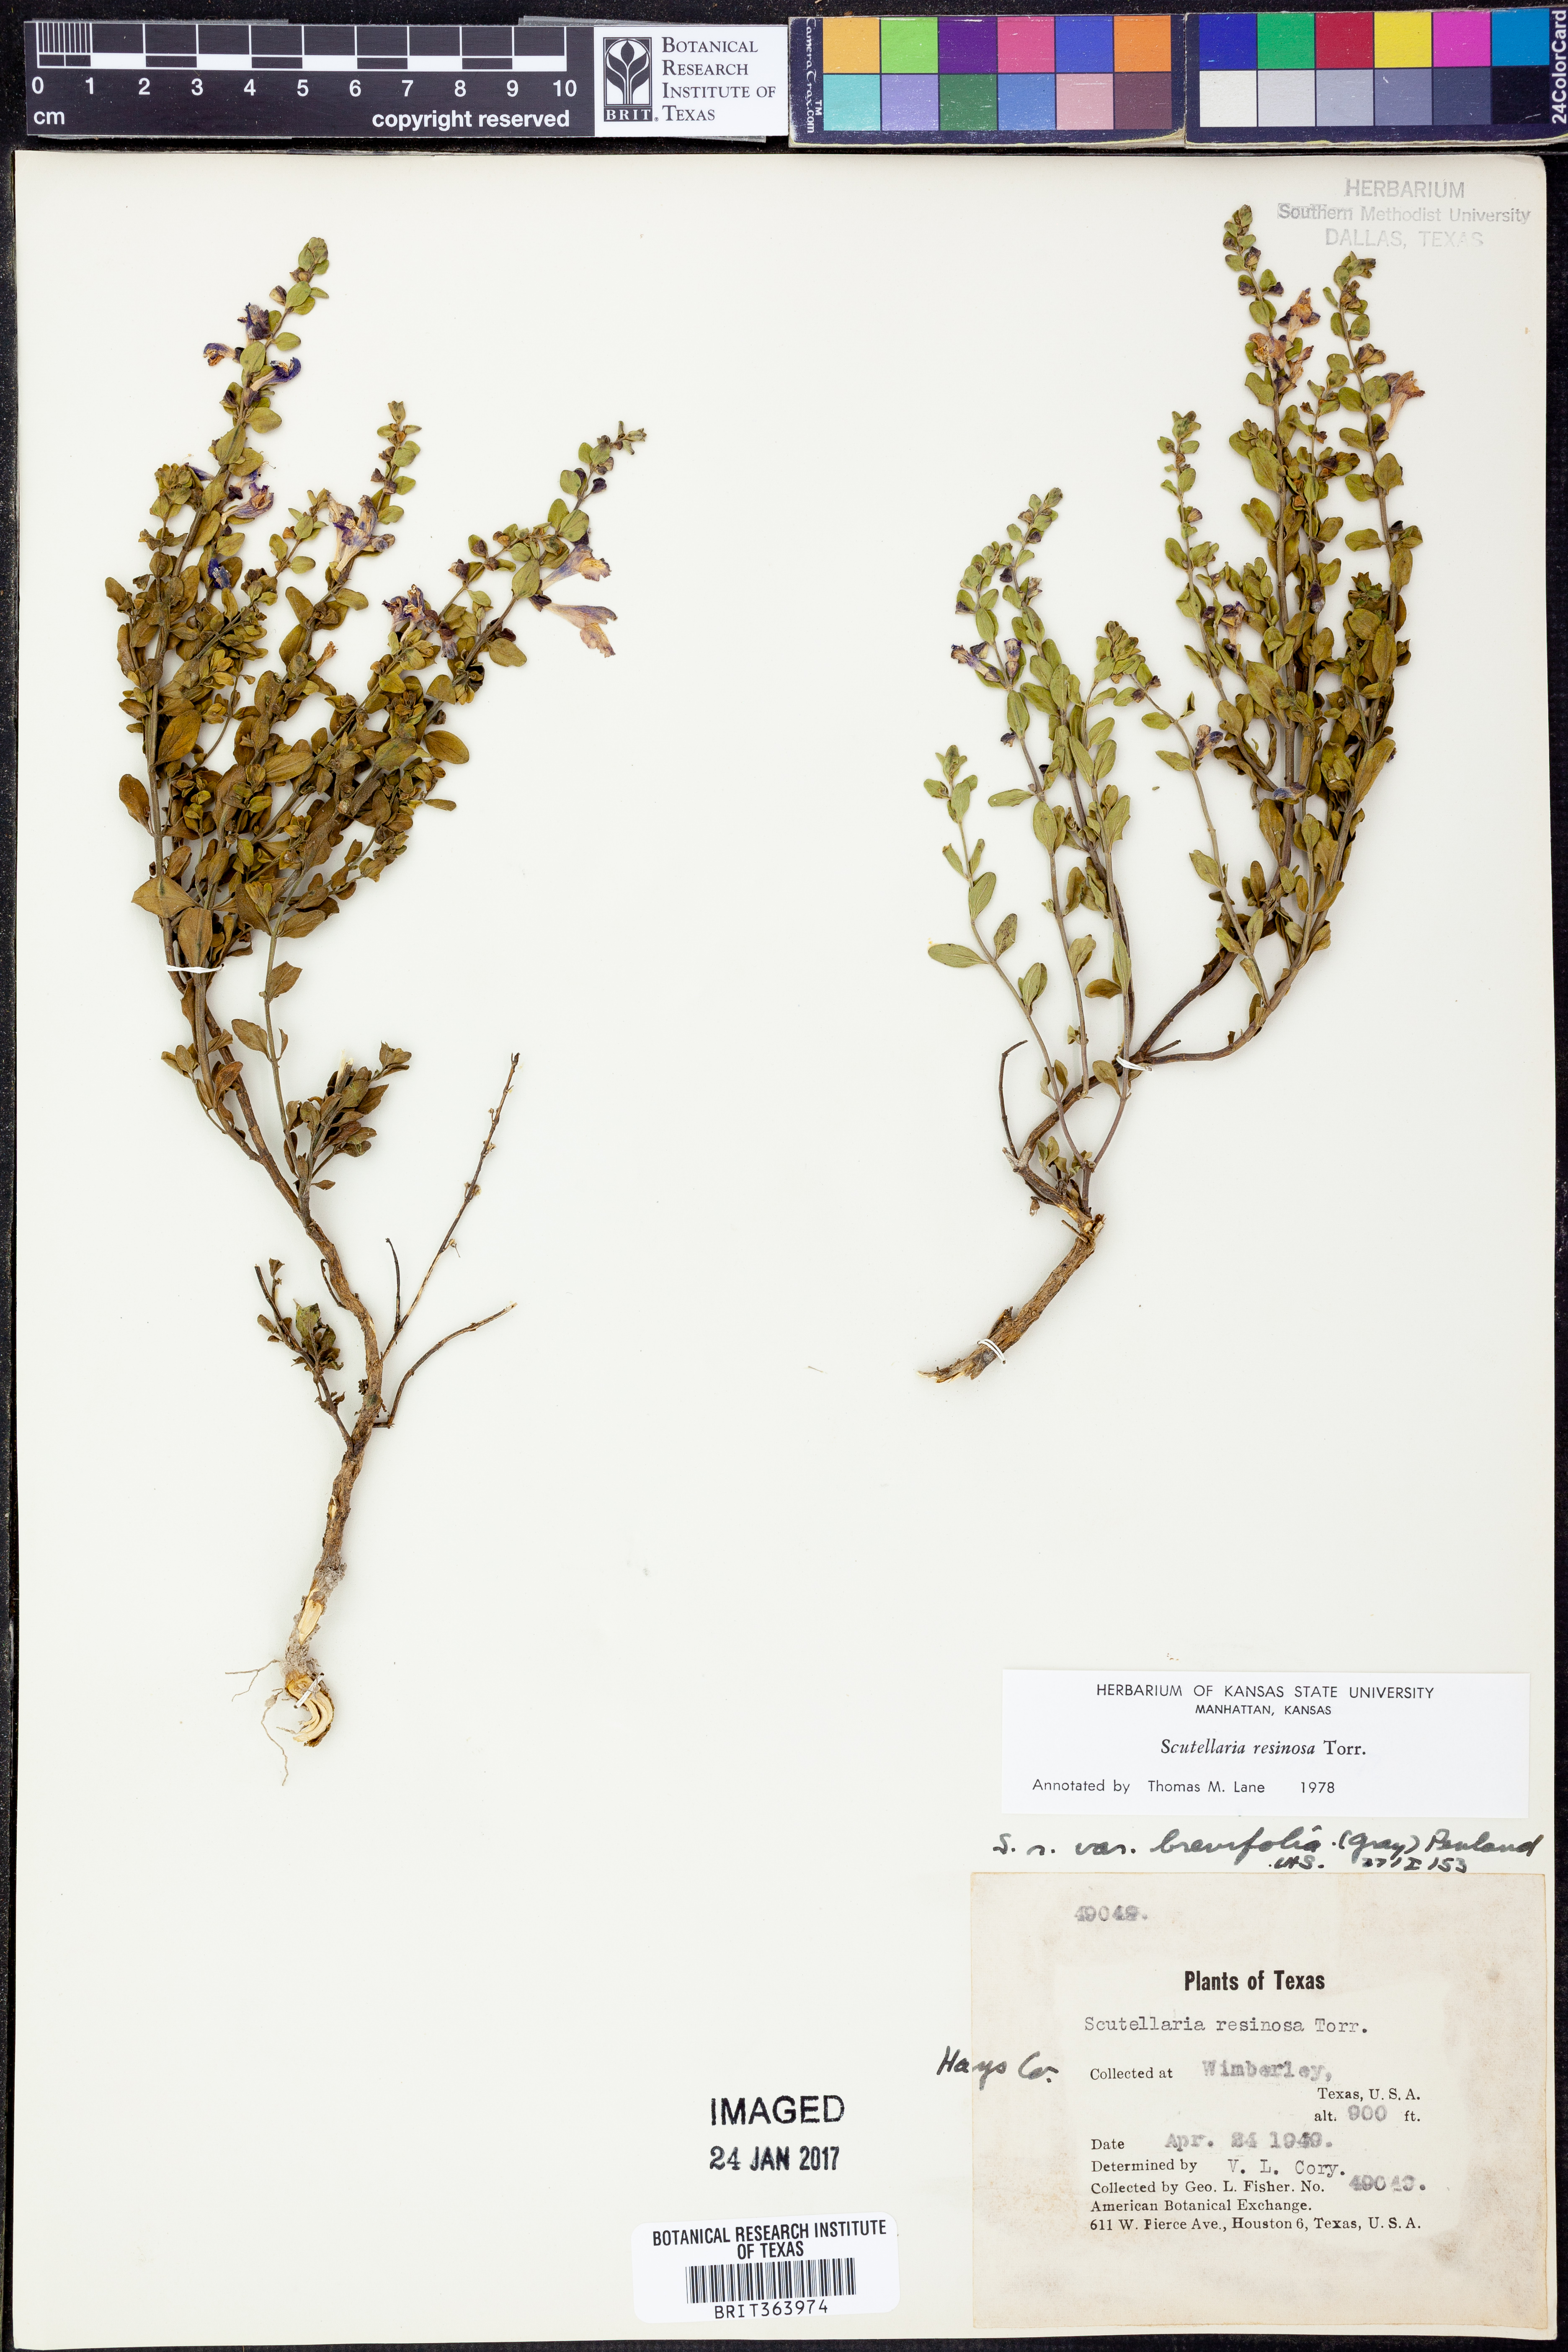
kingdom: Plantae
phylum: Tracheophyta
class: Magnoliopsida
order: Lamiales
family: Lamiaceae
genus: Scutellaria
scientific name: Scutellaria resinosa
